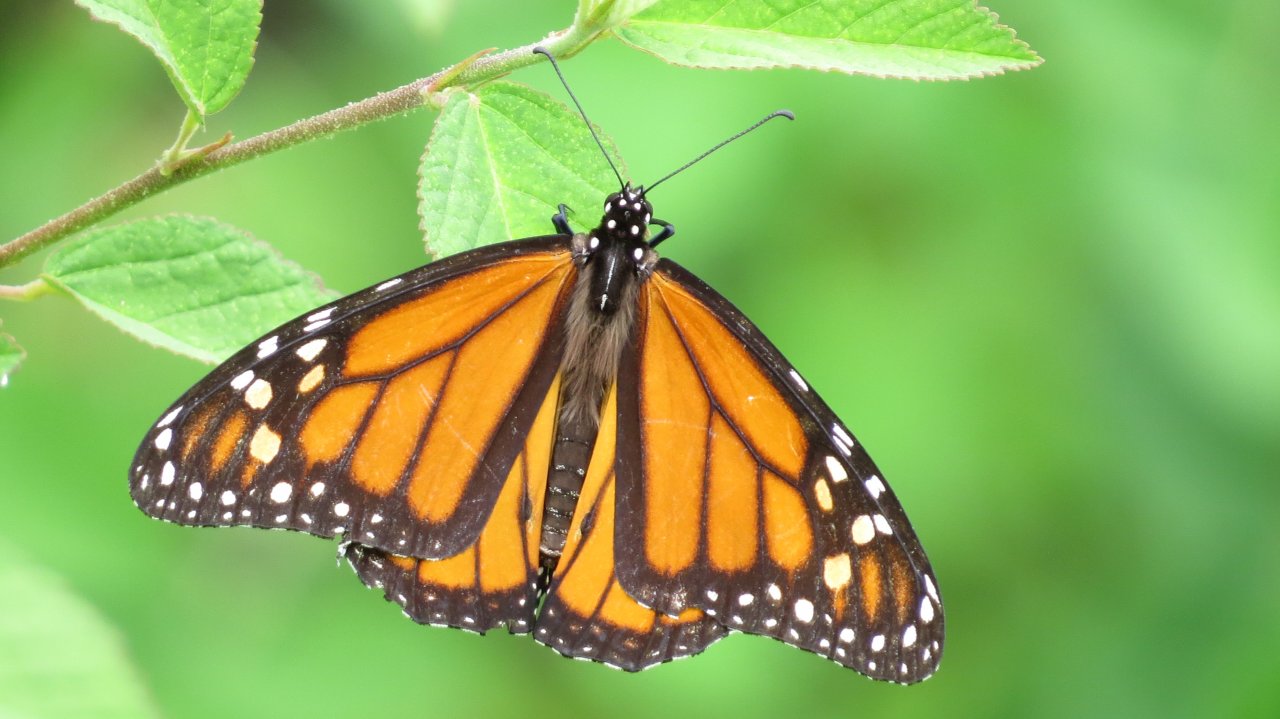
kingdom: Animalia
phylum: Arthropoda
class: Insecta
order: Lepidoptera
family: Nymphalidae
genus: Danaus
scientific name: Danaus plexippus
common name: Monarch
